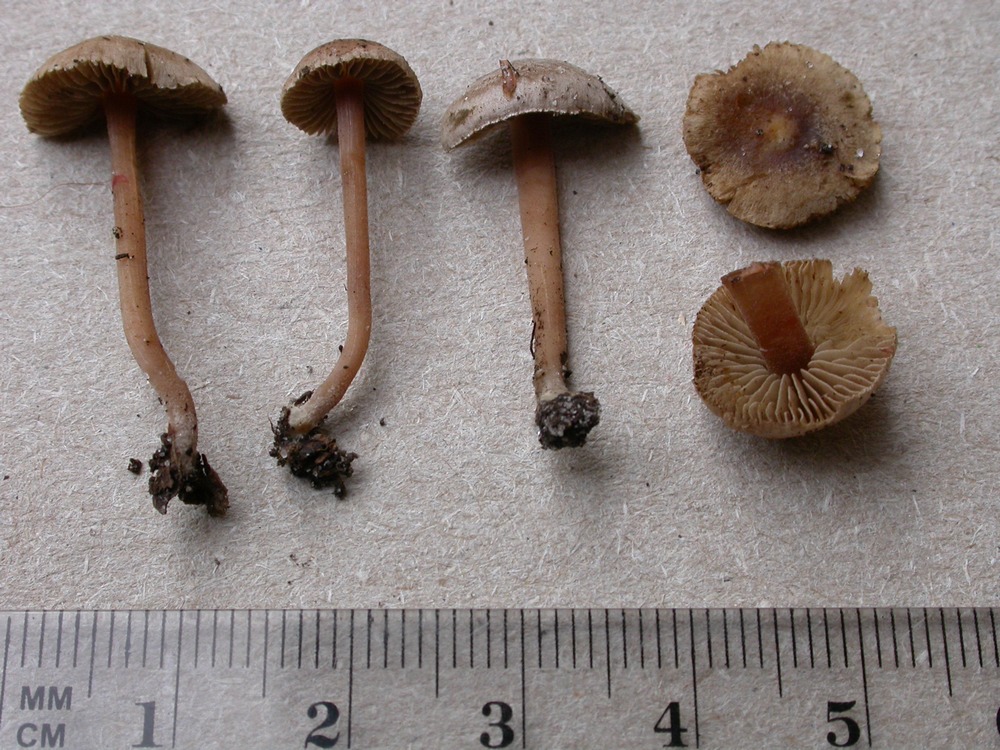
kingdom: Fungi
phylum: Basidiomycota
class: Agaricomycetes
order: Agaricales
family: Inocybaceae
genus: Inocybe
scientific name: Inocybe petiginosa
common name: liden trævlhat
